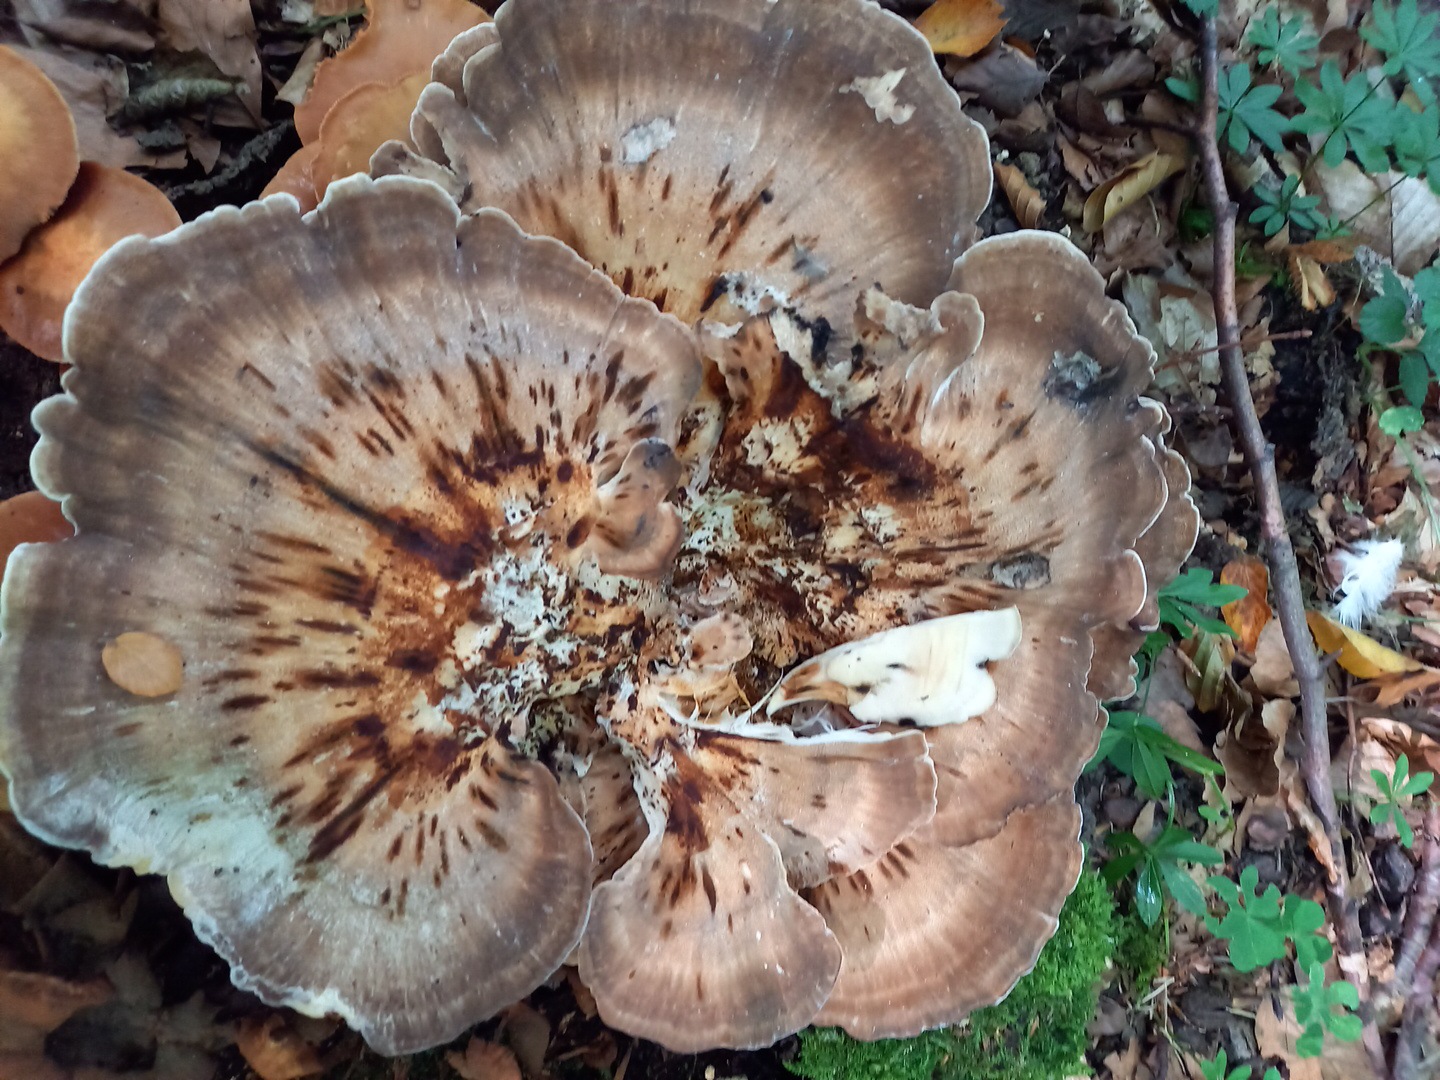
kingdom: Fungi
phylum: Basidiomycota
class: Agaricomycetes
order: Polyporales
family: Meripilaceae
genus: Meripilus
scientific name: Meripilus giganteus
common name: kæmpeporesvamp
